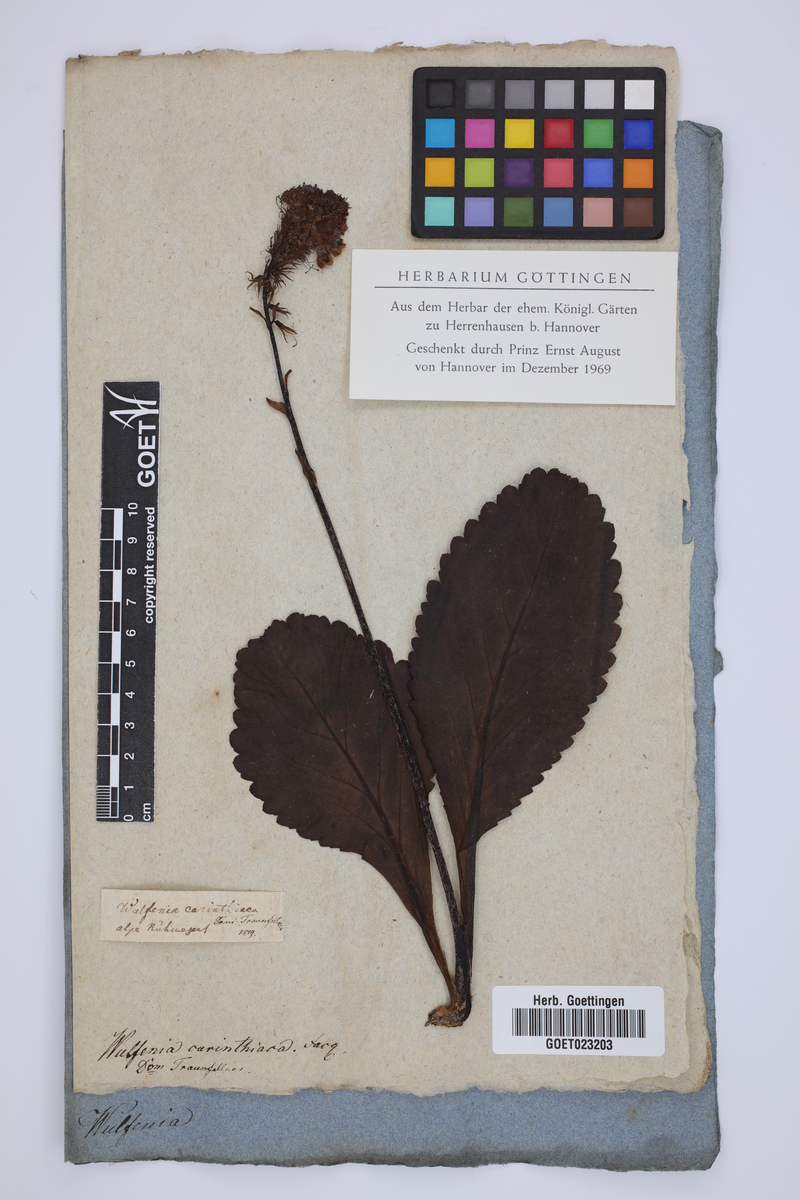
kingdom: Plantae
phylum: Tracheophyta
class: Magnoliopsida
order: Lamiales
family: Plantaginaceae
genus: Wulfenia
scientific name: Wulfenia carinthiaca
